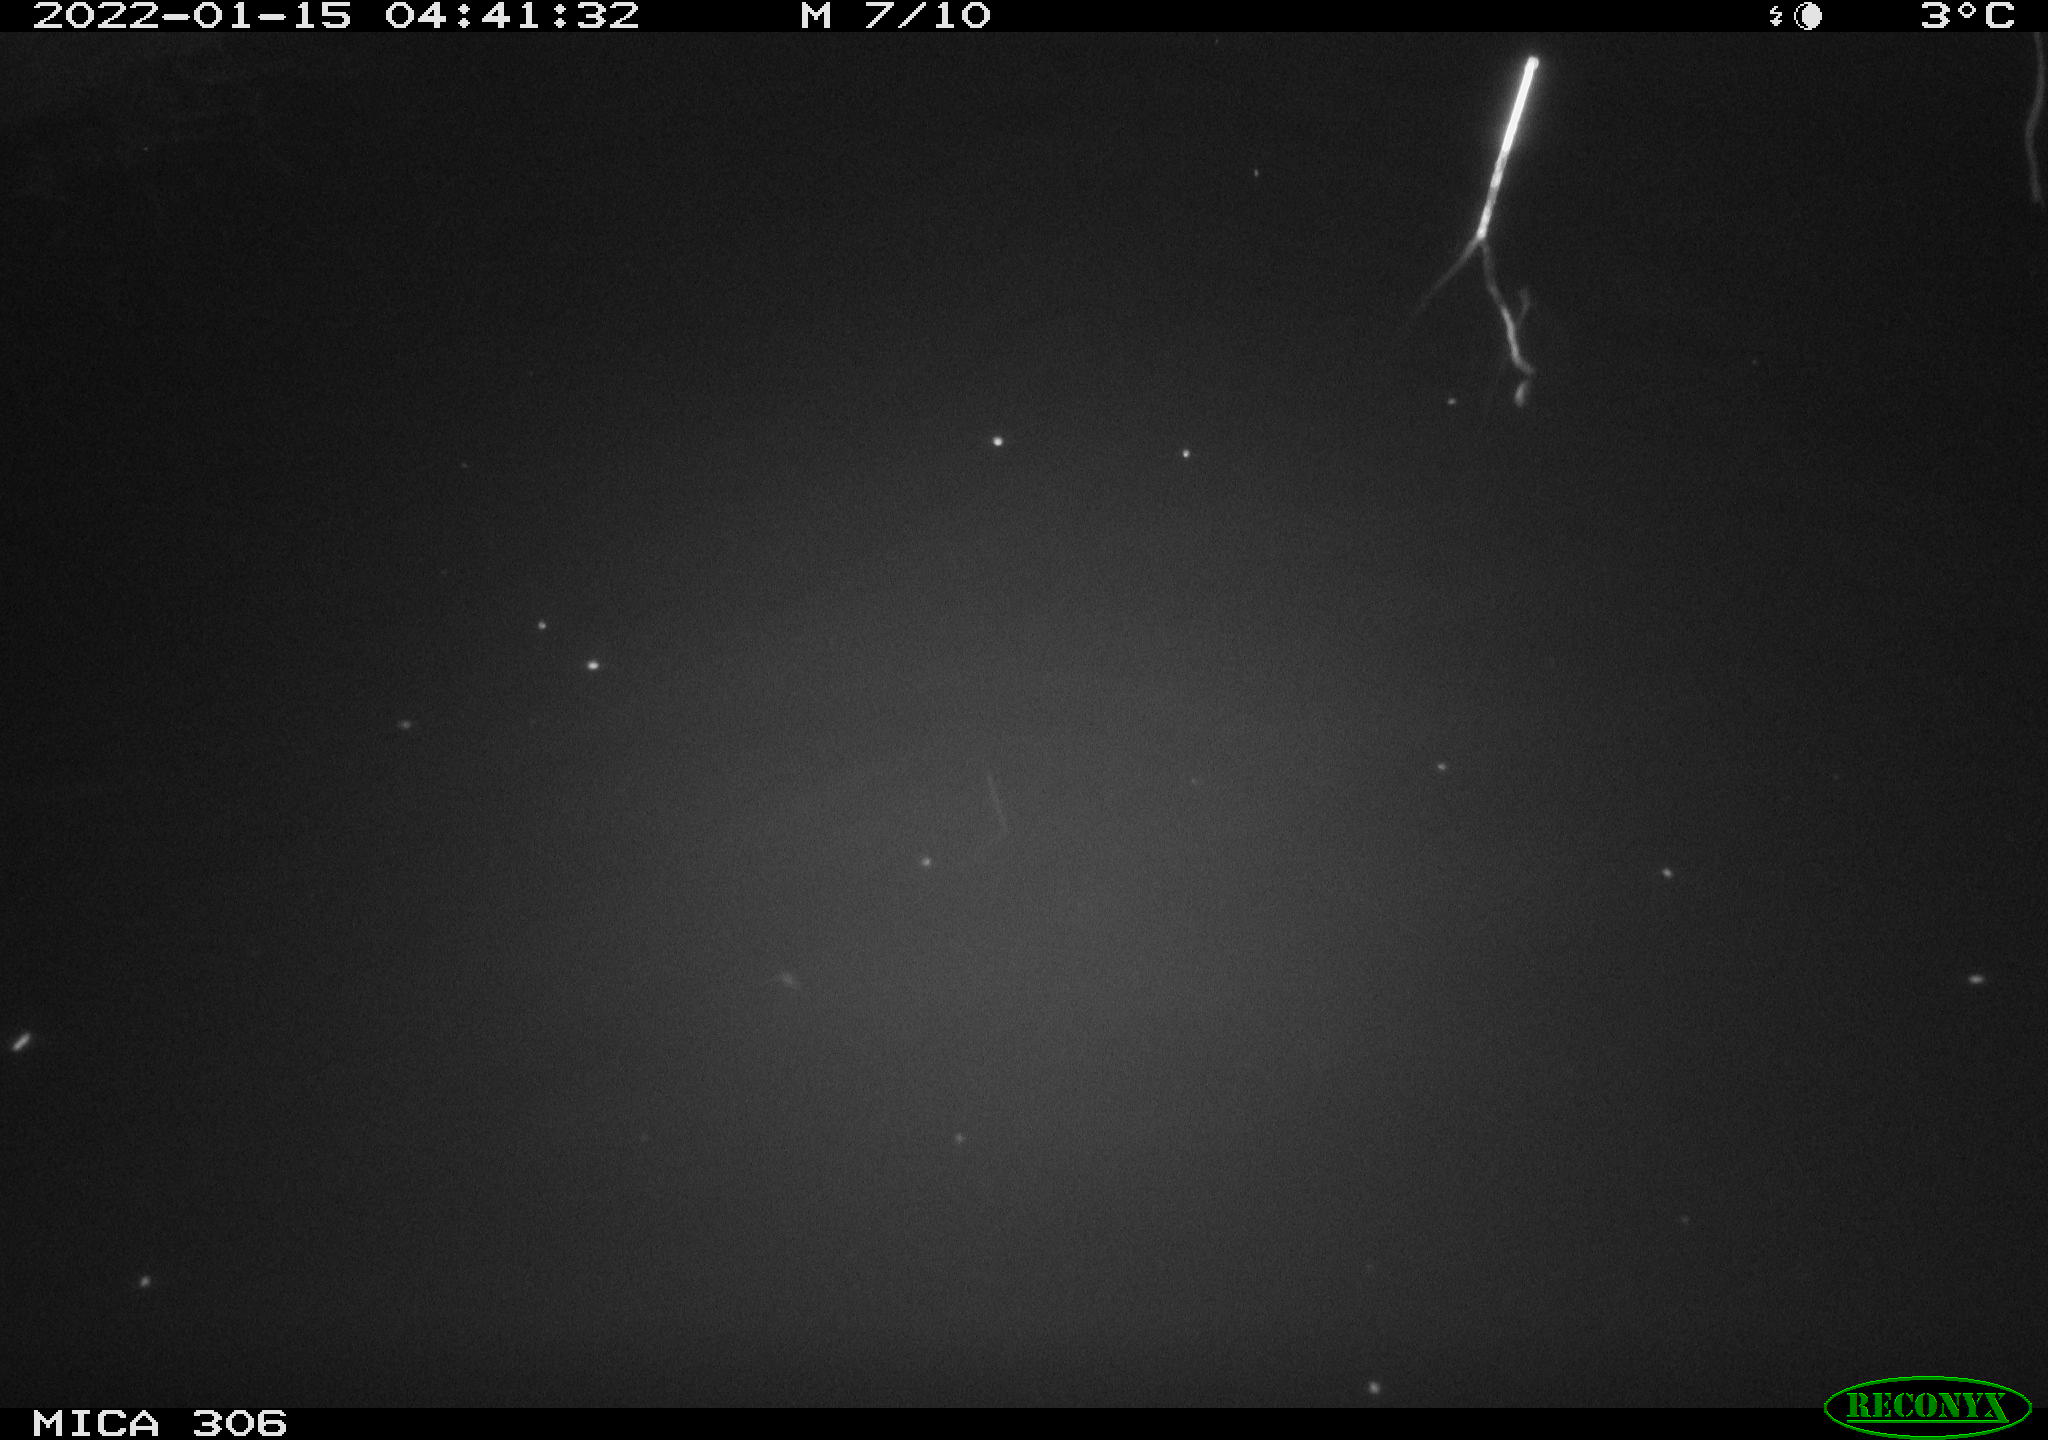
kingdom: Animalia
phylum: Chordata
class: Mammalia
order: Rodentia
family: Cricetidae
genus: Ondatra
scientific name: Ondatra zibethicus
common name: Muskrat
